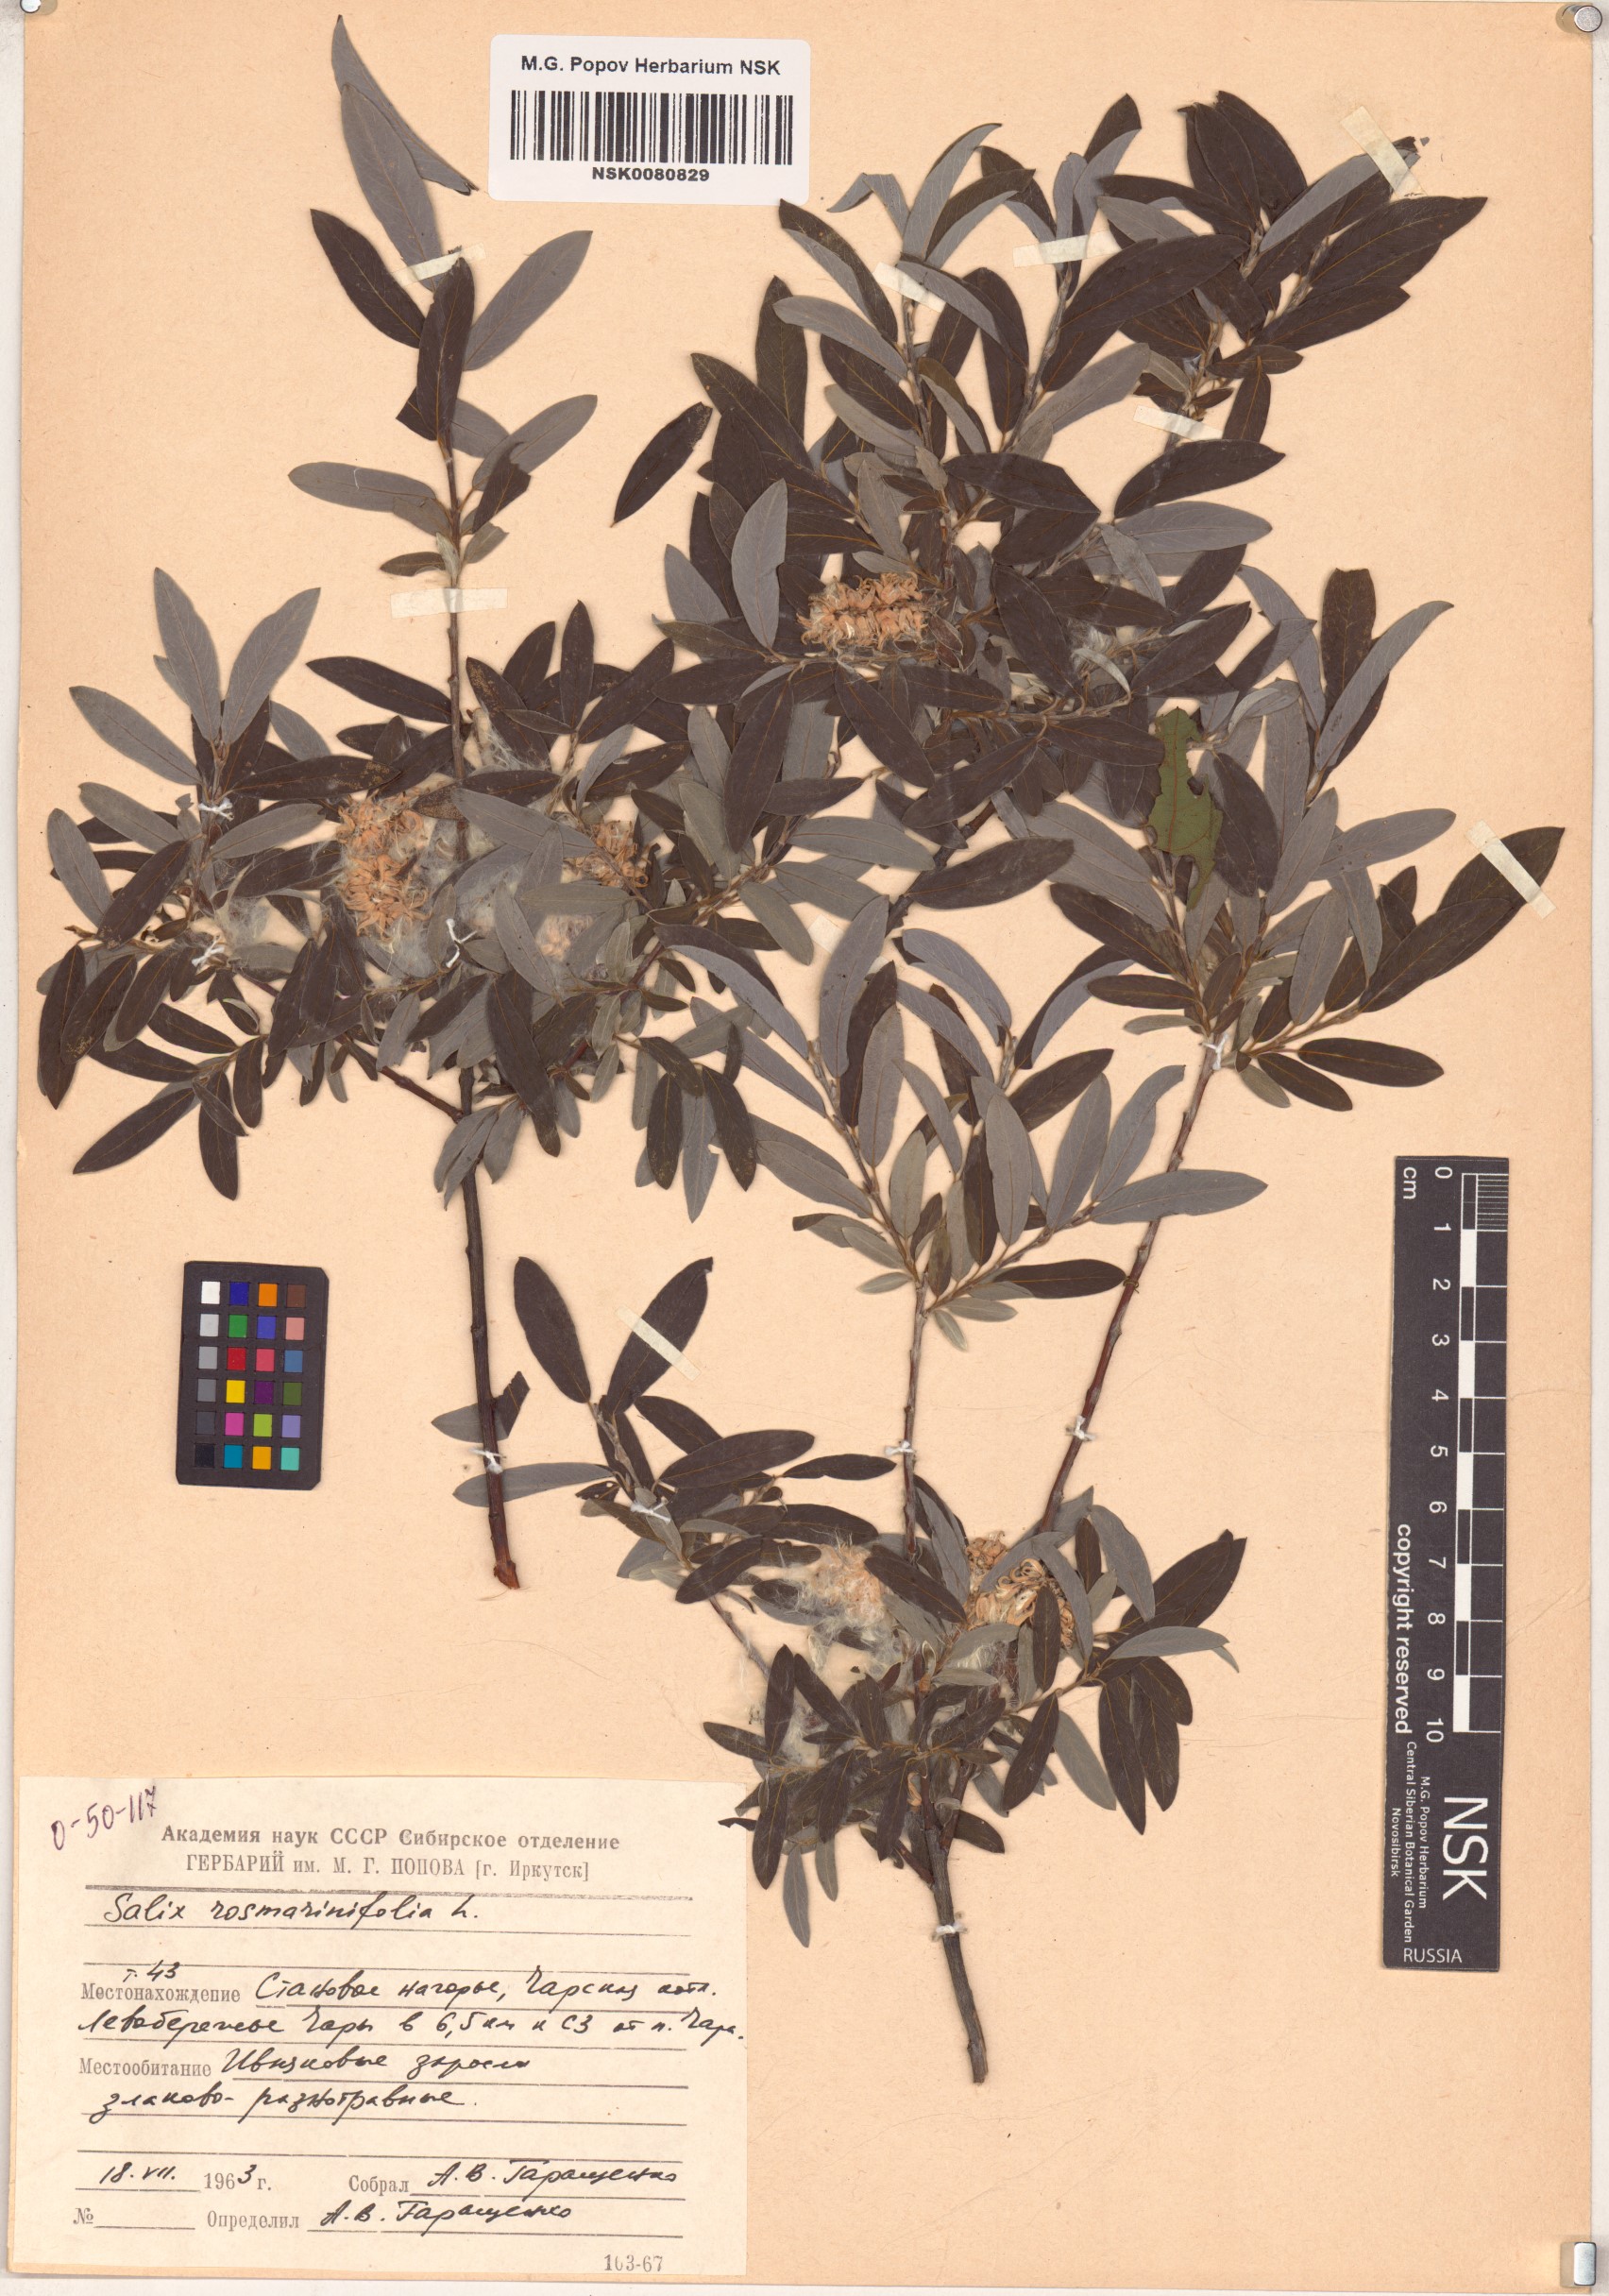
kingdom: Plantae
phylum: Tracheophyta
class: Magnoliopsida
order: Malpighiales
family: Salicaceae
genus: Salix
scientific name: Salix rosmarinifolia
